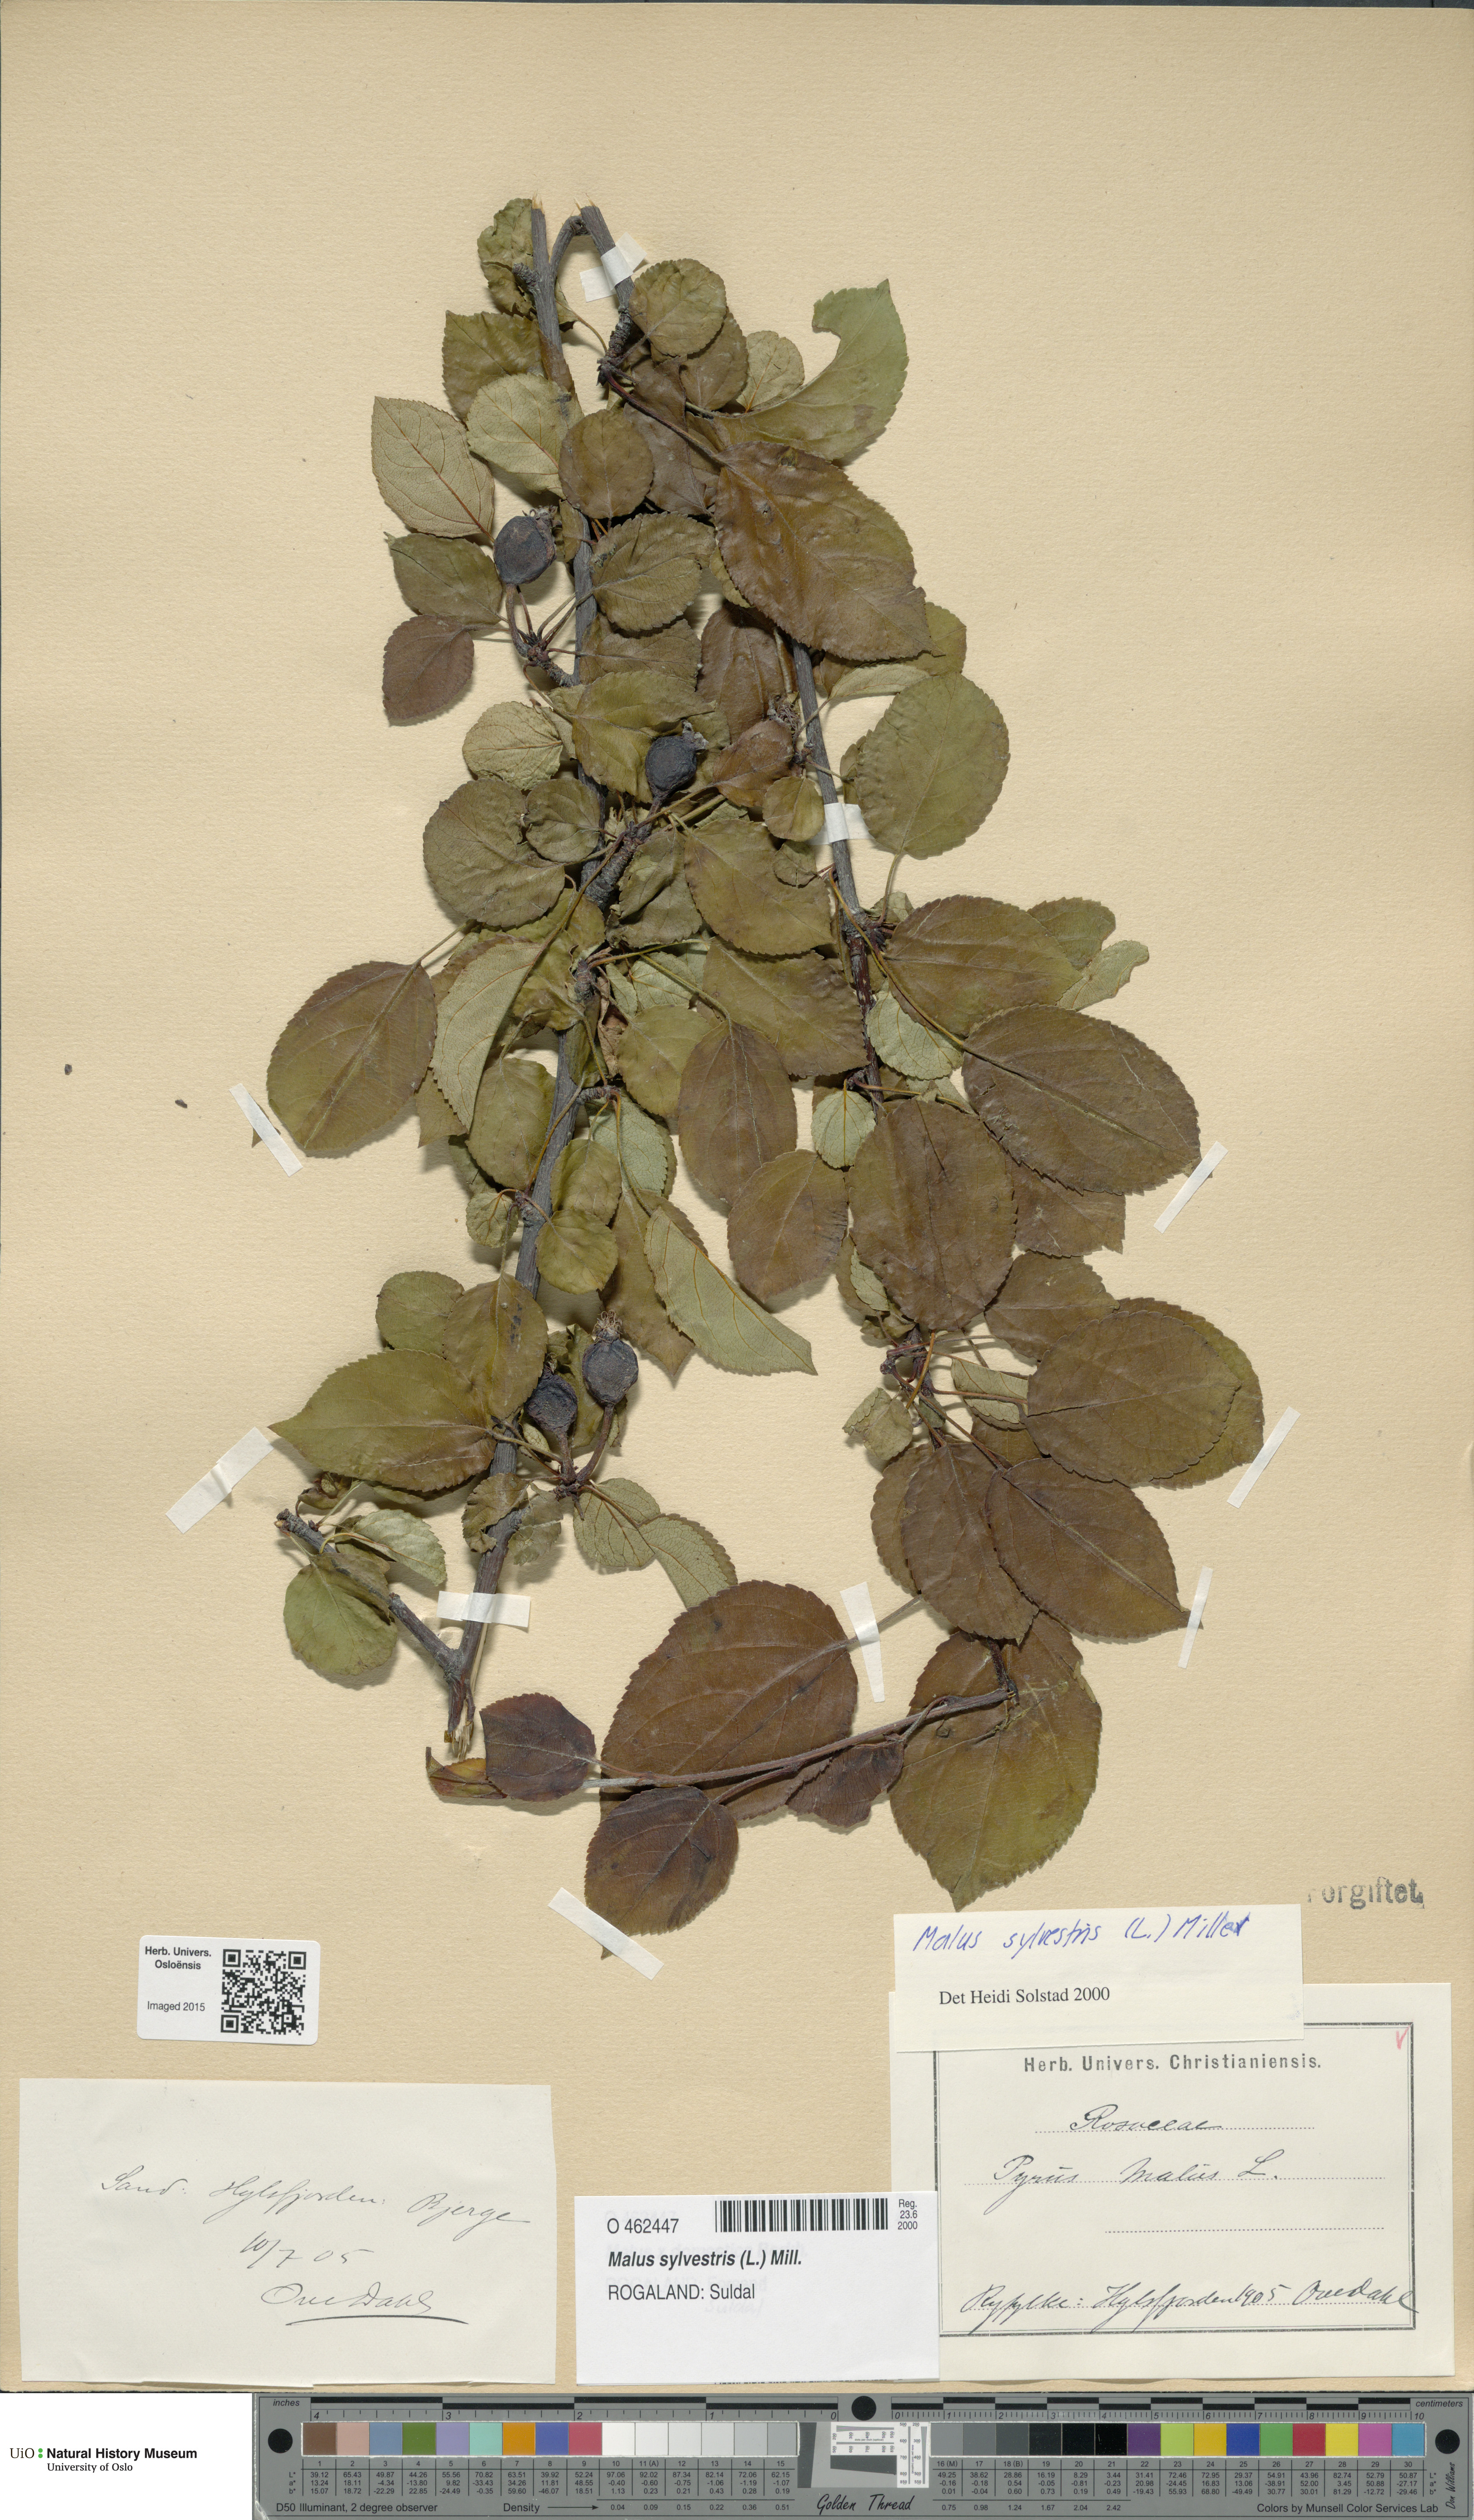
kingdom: Plantae
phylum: Tracheophyta
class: Magnoliopsida
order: Rosales
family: Rosaceae
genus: Malus
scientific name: Malus sylvestris
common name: Crab apple
